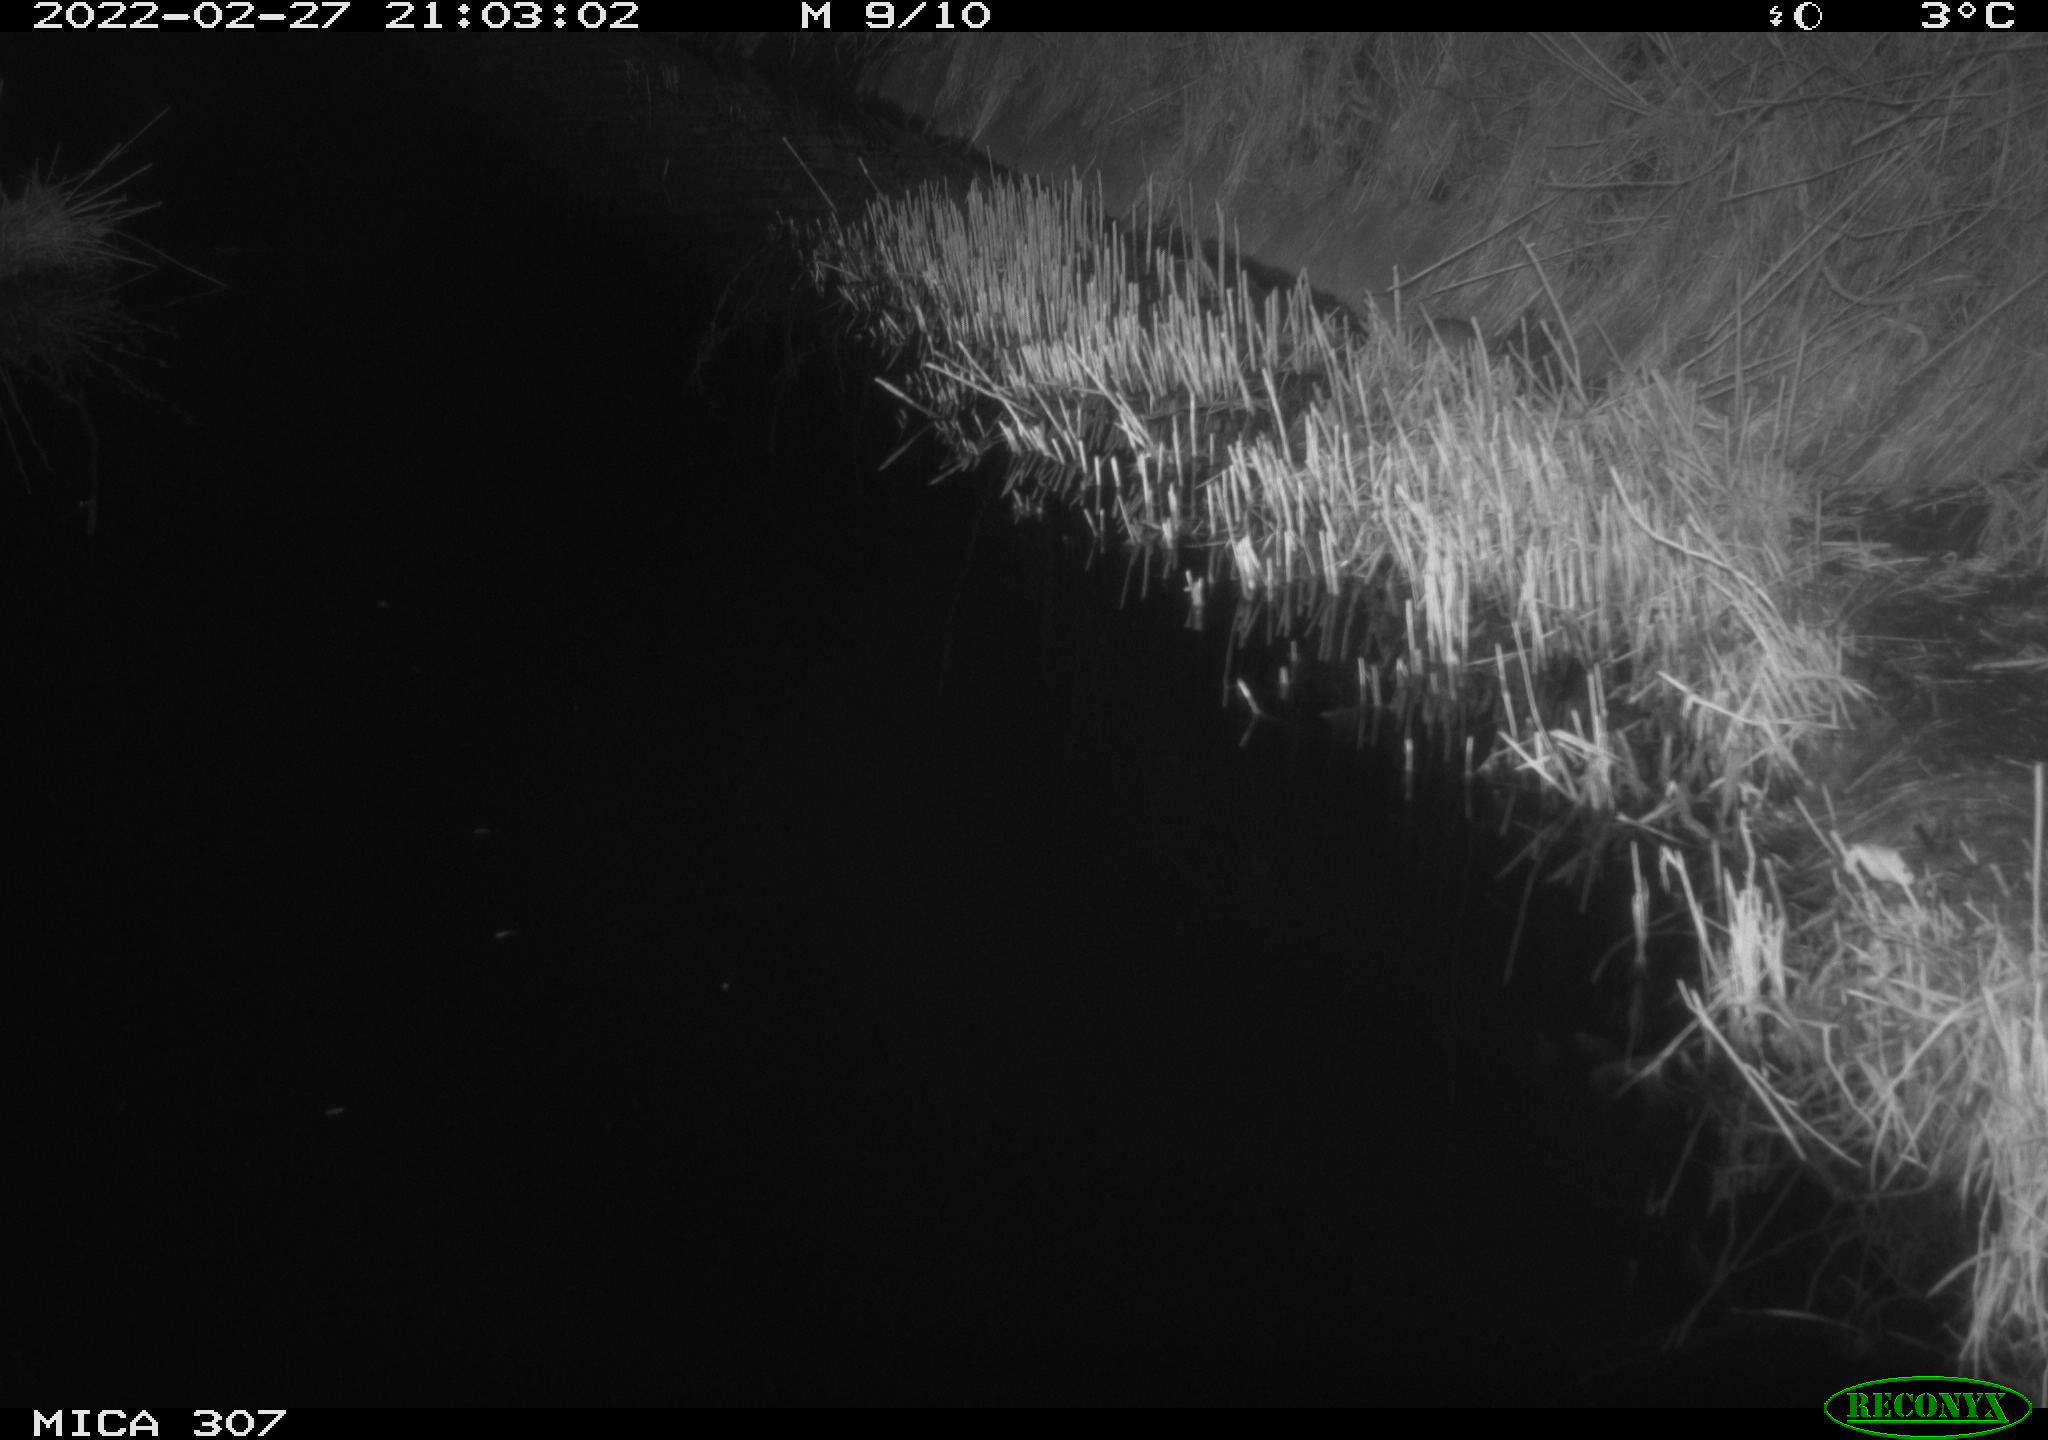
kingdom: Animalia
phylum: Chordata
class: Mammalia
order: Rodentia
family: Muridae
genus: Rattus
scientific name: Rattus norvegicus
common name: Brown rat
